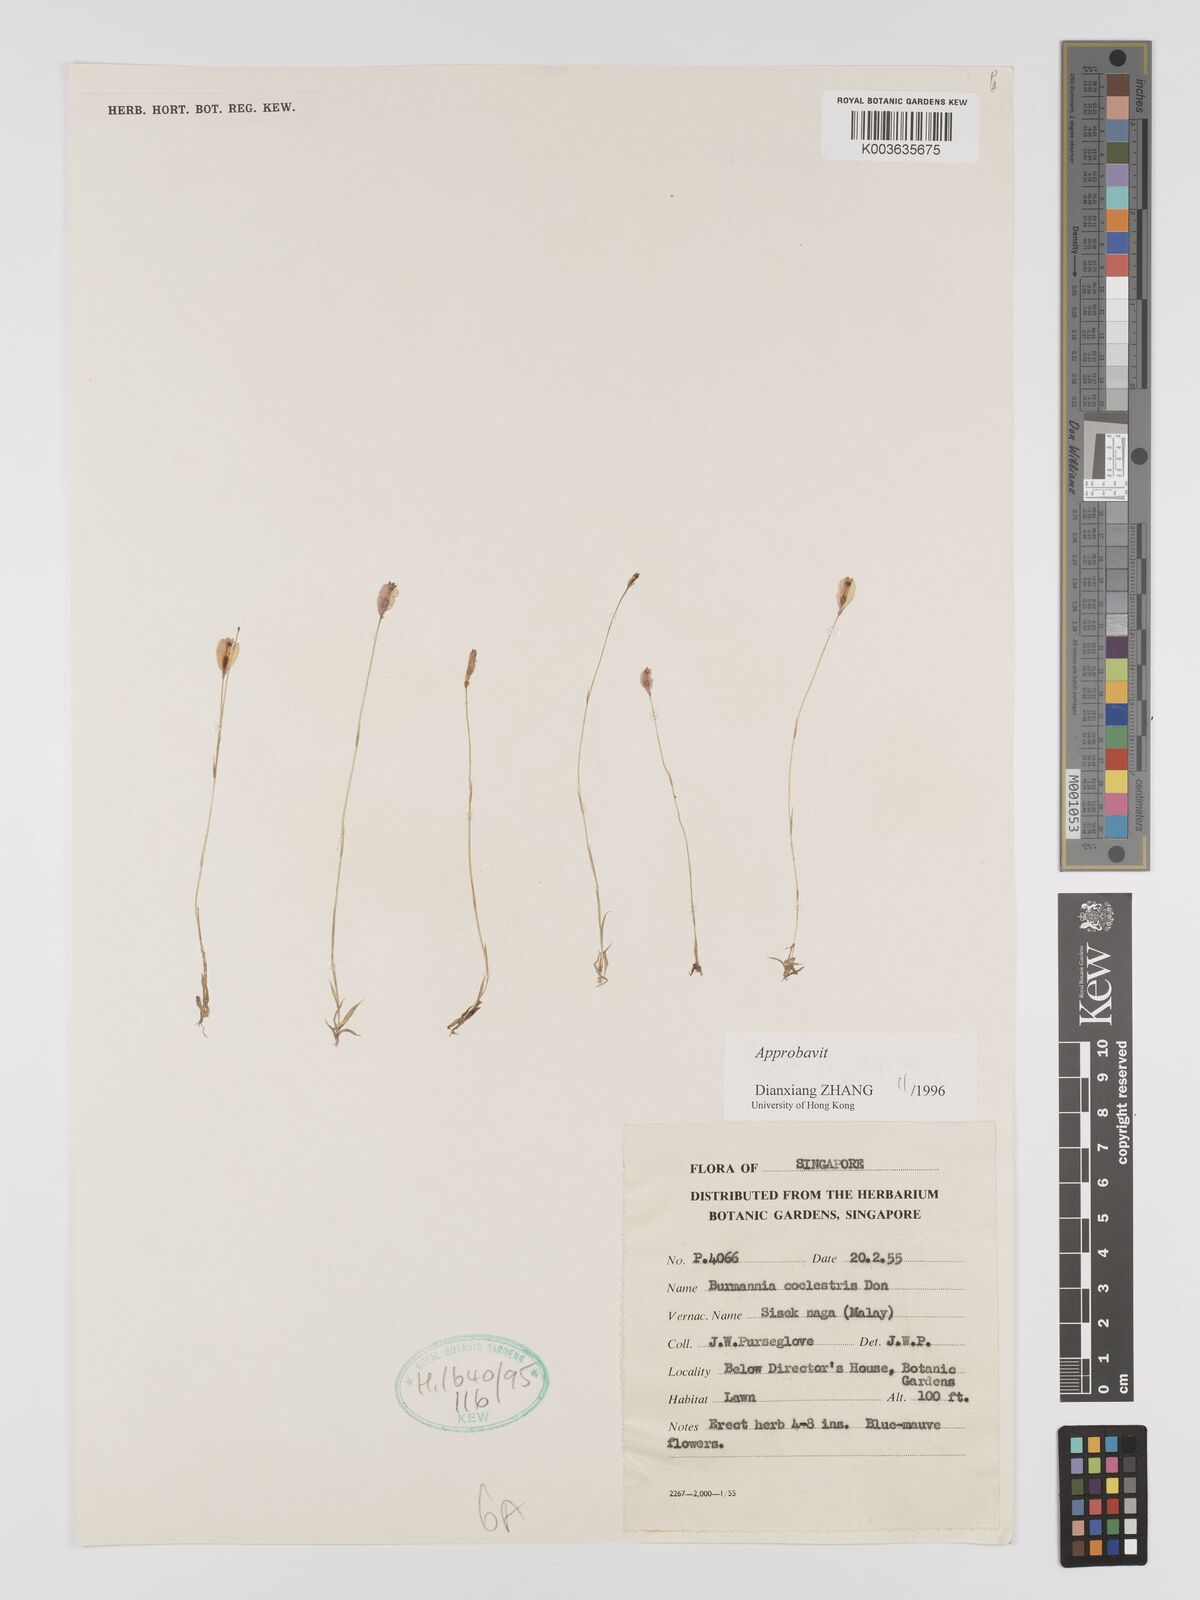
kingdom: Plantae
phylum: Tracheophyta
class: Liliopsida
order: Dioscoreales
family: Burmanniaceae
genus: Burmannia
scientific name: Burmannia coelestis
